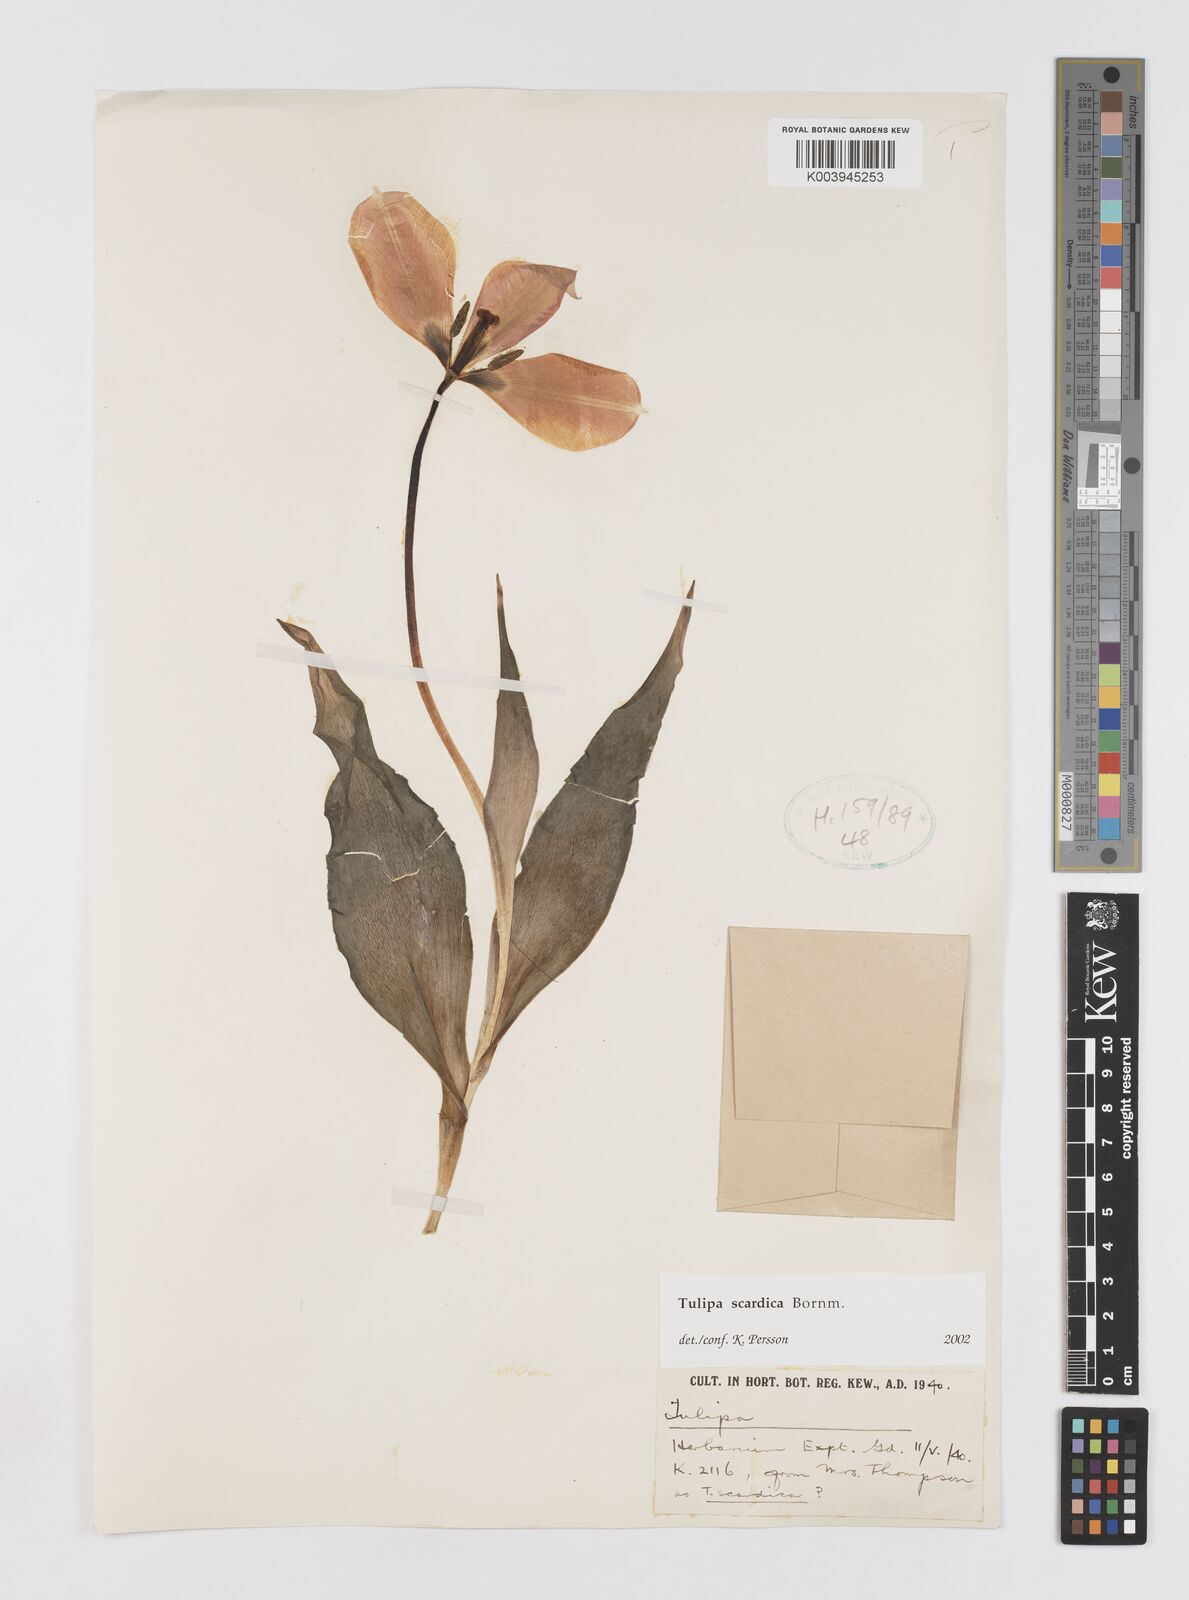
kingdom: Plantae
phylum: Tracheophyta
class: Liliopsida
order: Liliales
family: Liliaceae
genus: Tulipa
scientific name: Tulipa scardica
